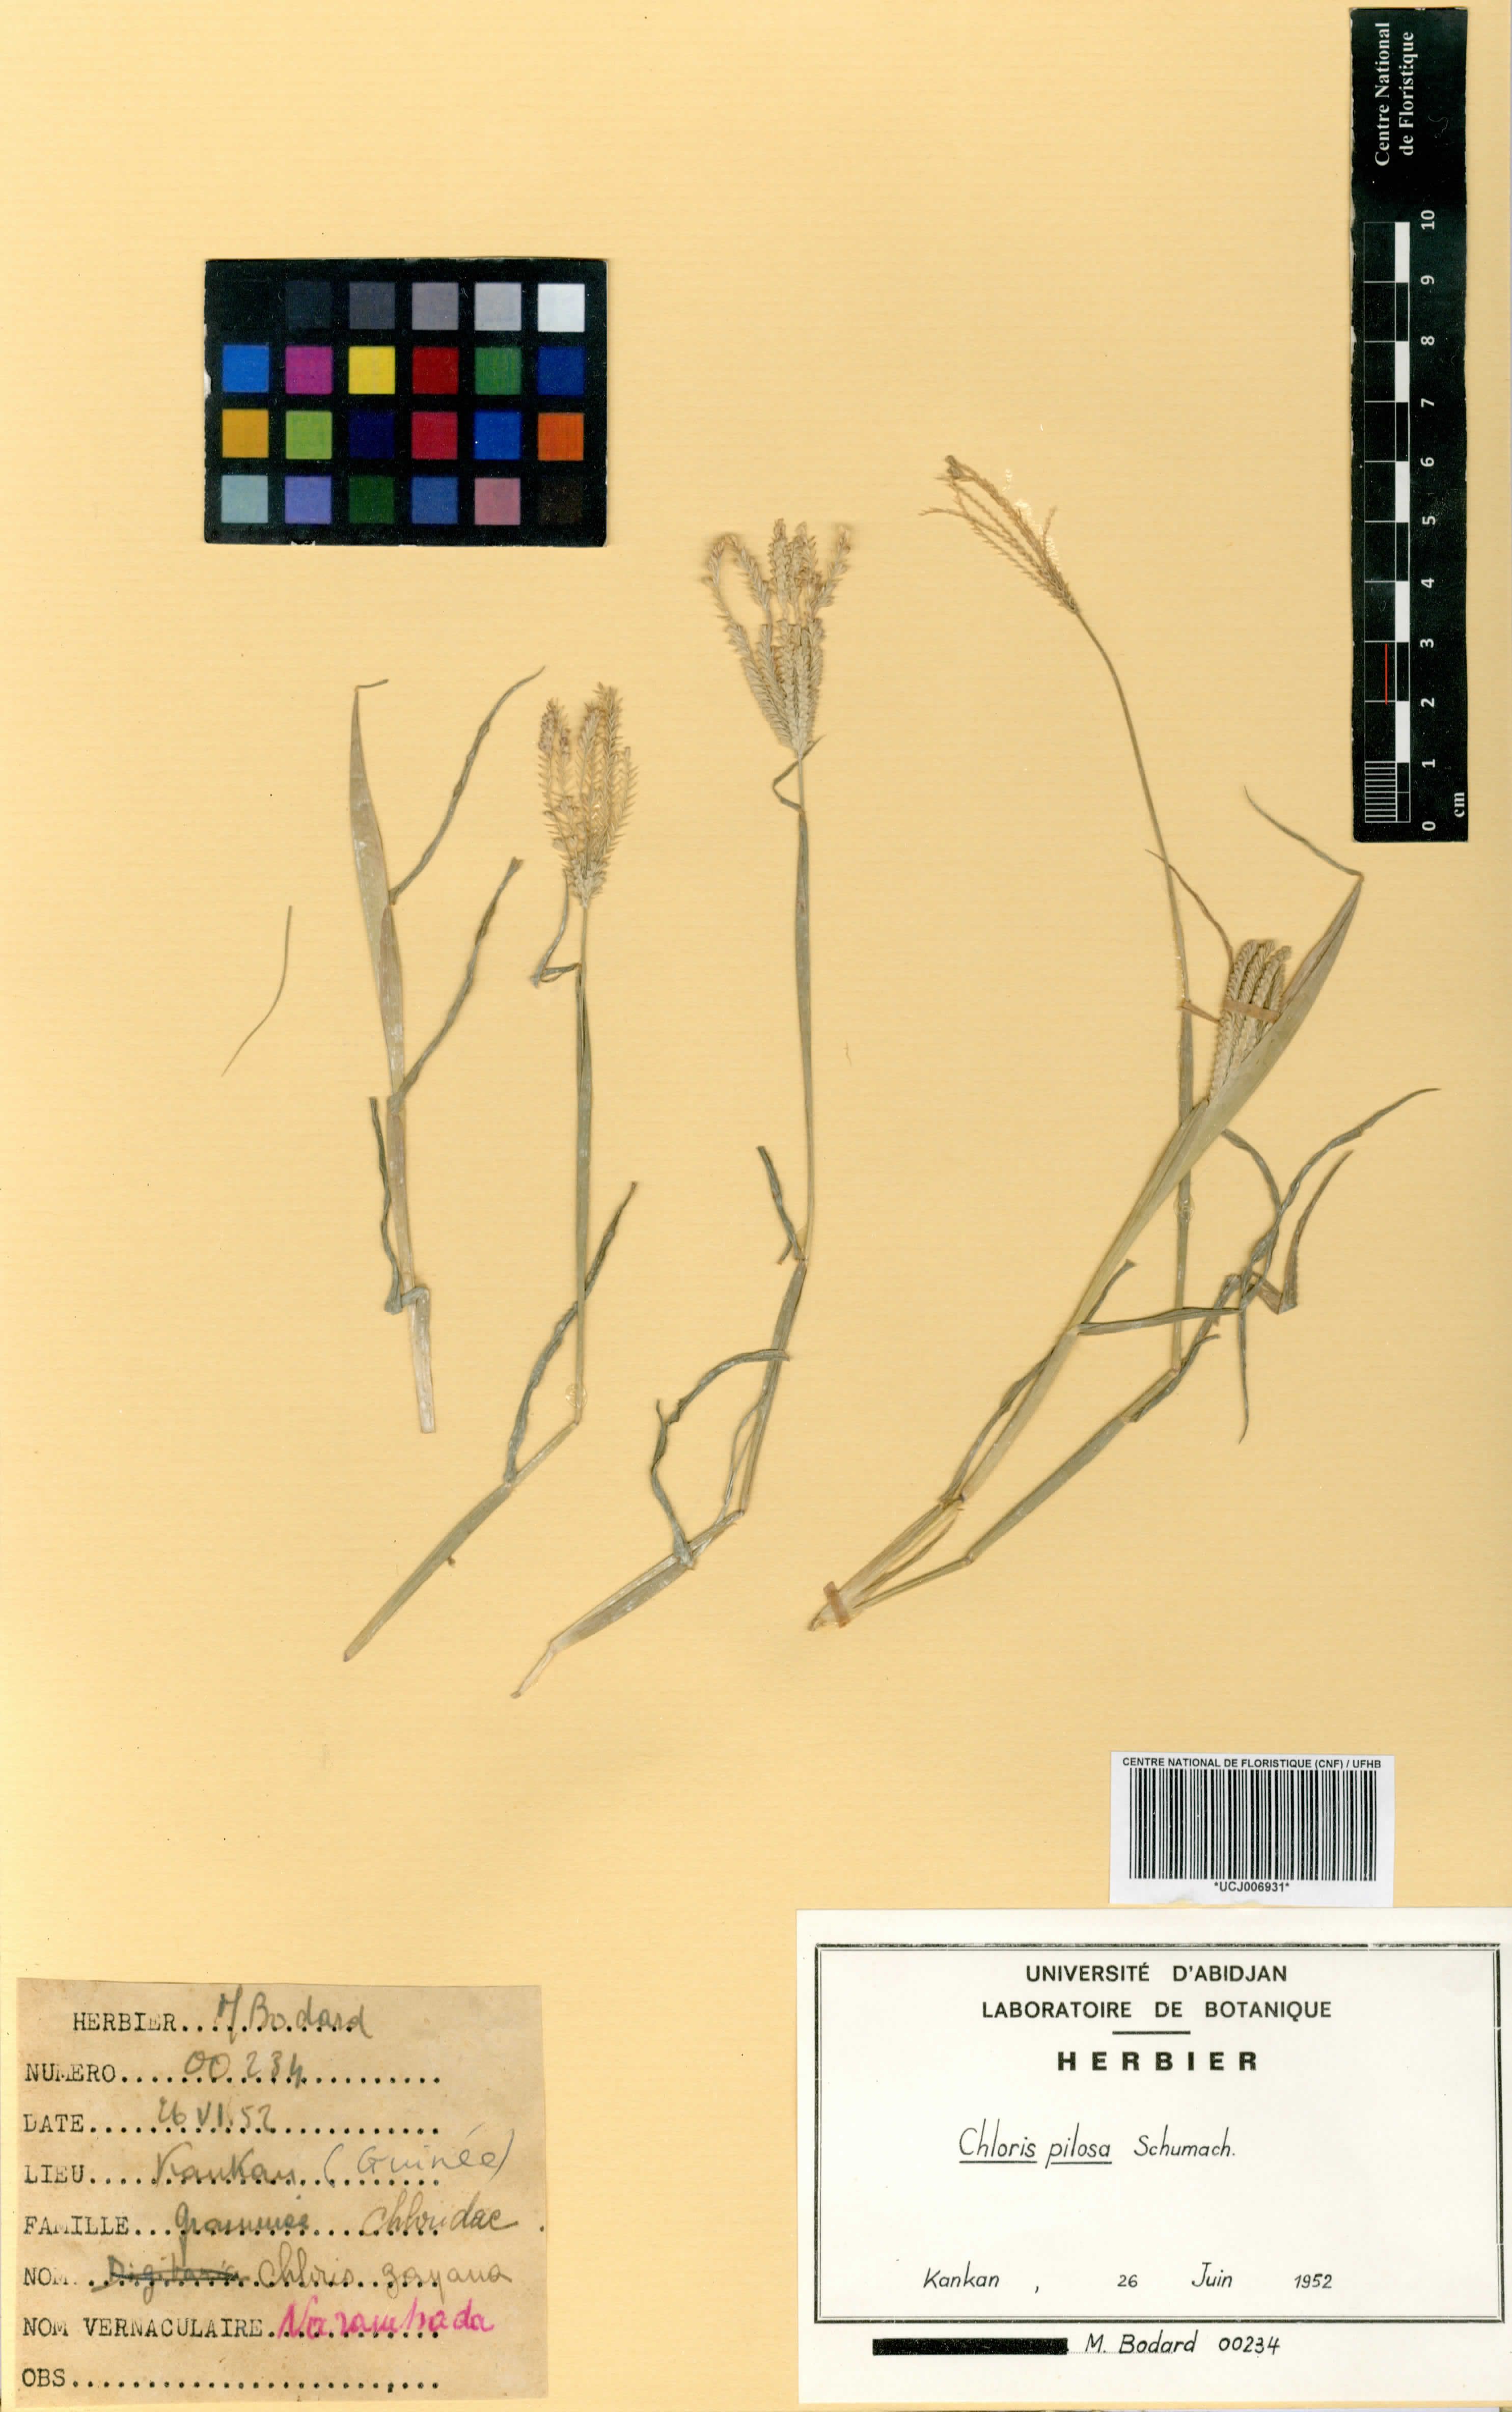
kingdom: Plantae
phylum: Tracheophyta
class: Liliopsida
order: Poales
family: Poaceae
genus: Chloris
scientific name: Chloris pilosa
